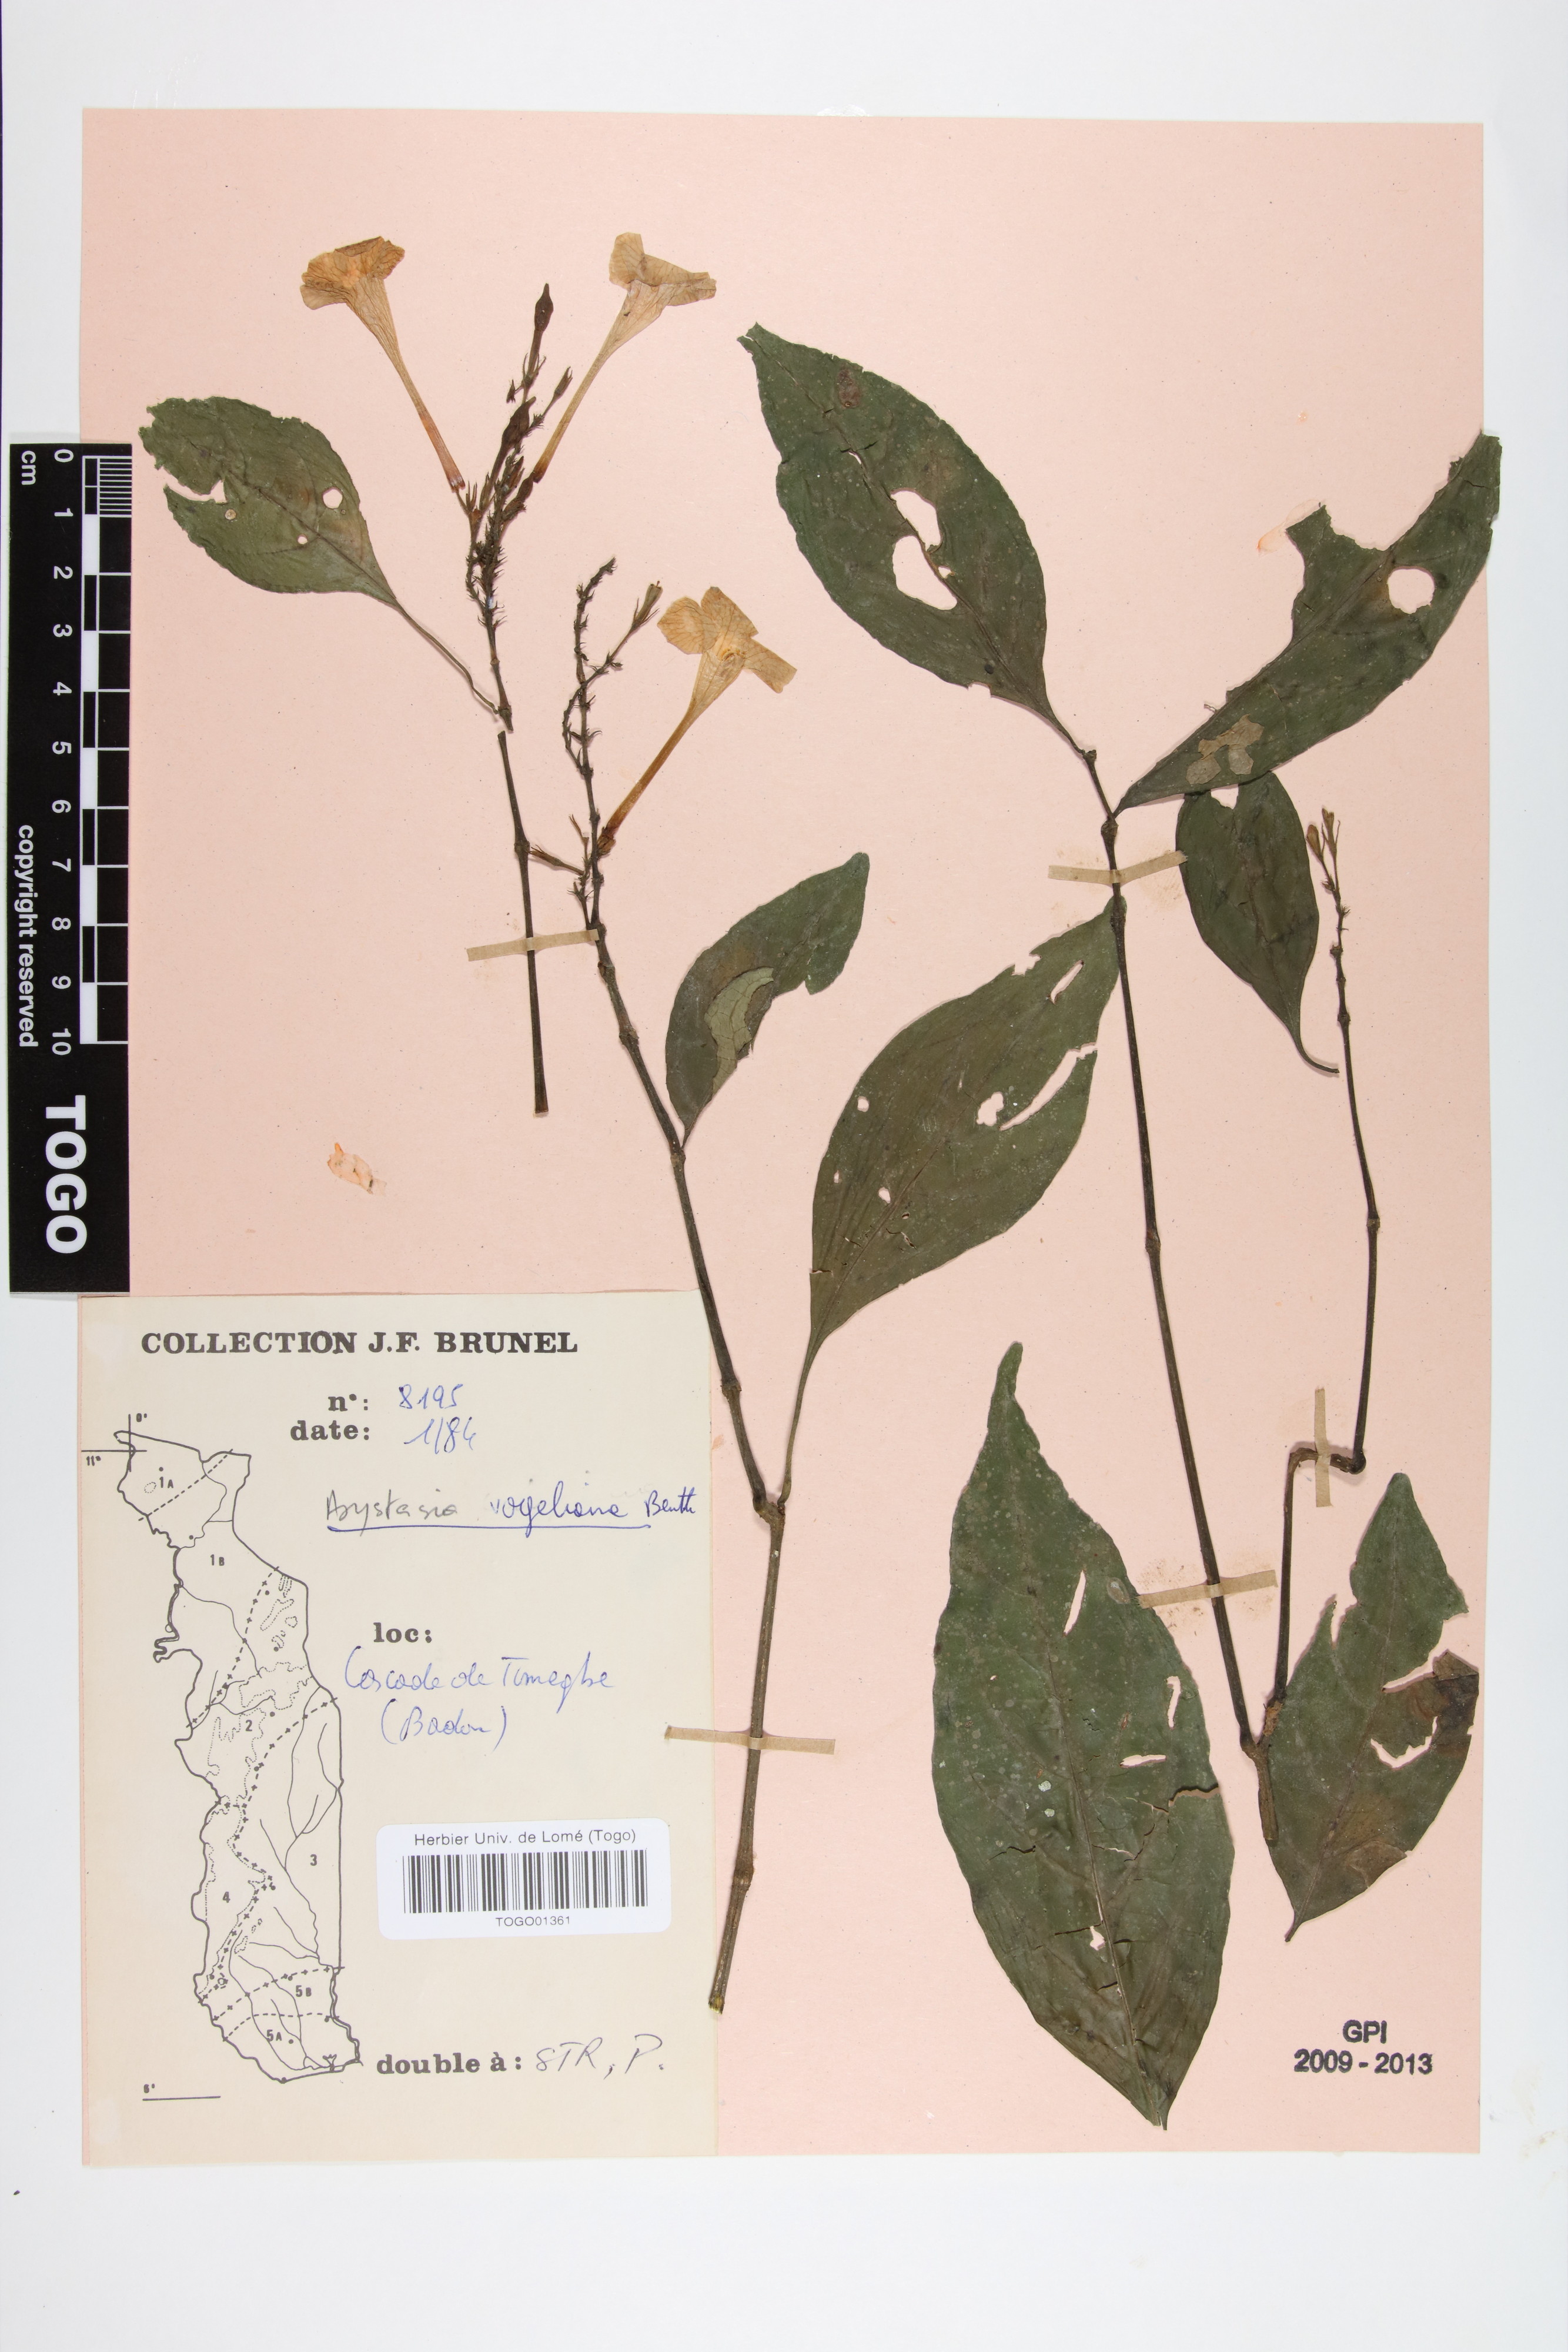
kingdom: Plantae
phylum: Tracheophyta
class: Magnoliopsida
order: Lamiales
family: Acanthaceae
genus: Asystasia
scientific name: Asystasia vogeliana
